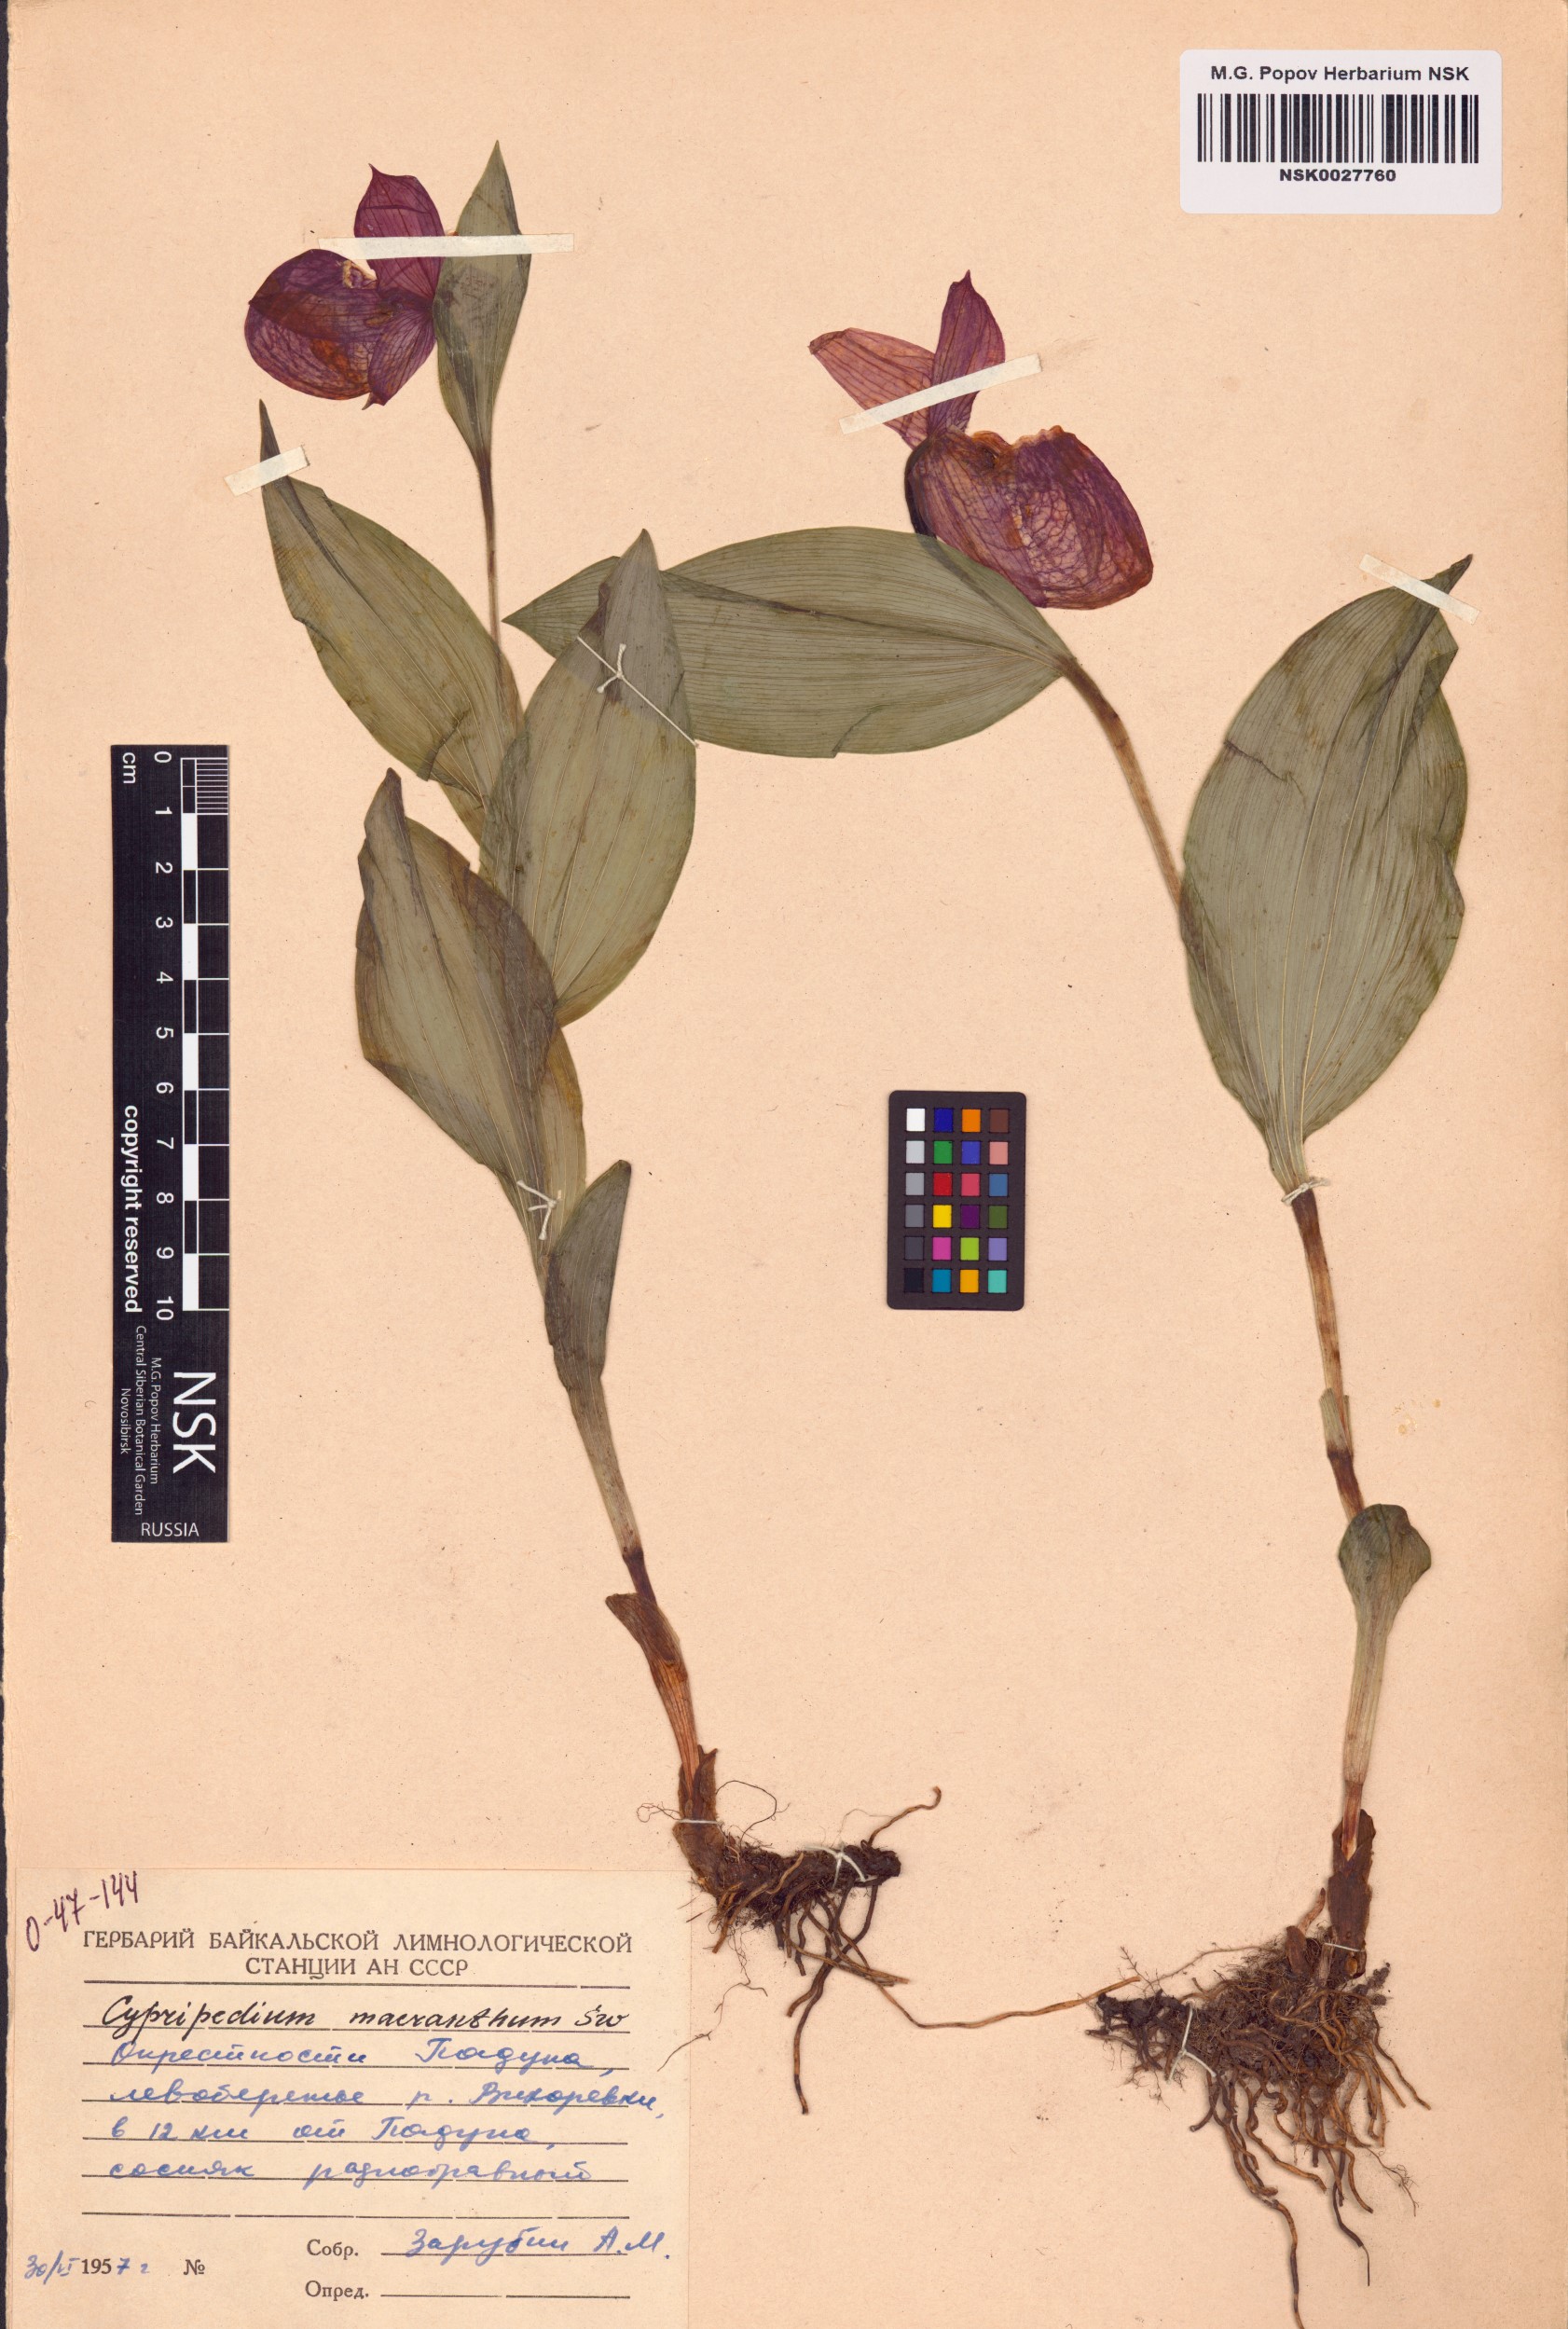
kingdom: Plantae
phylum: Tracheophyta
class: Liliopsida
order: Asparagales
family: Orchidaceae
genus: Cypripedium
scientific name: Cypripedium macranthos
